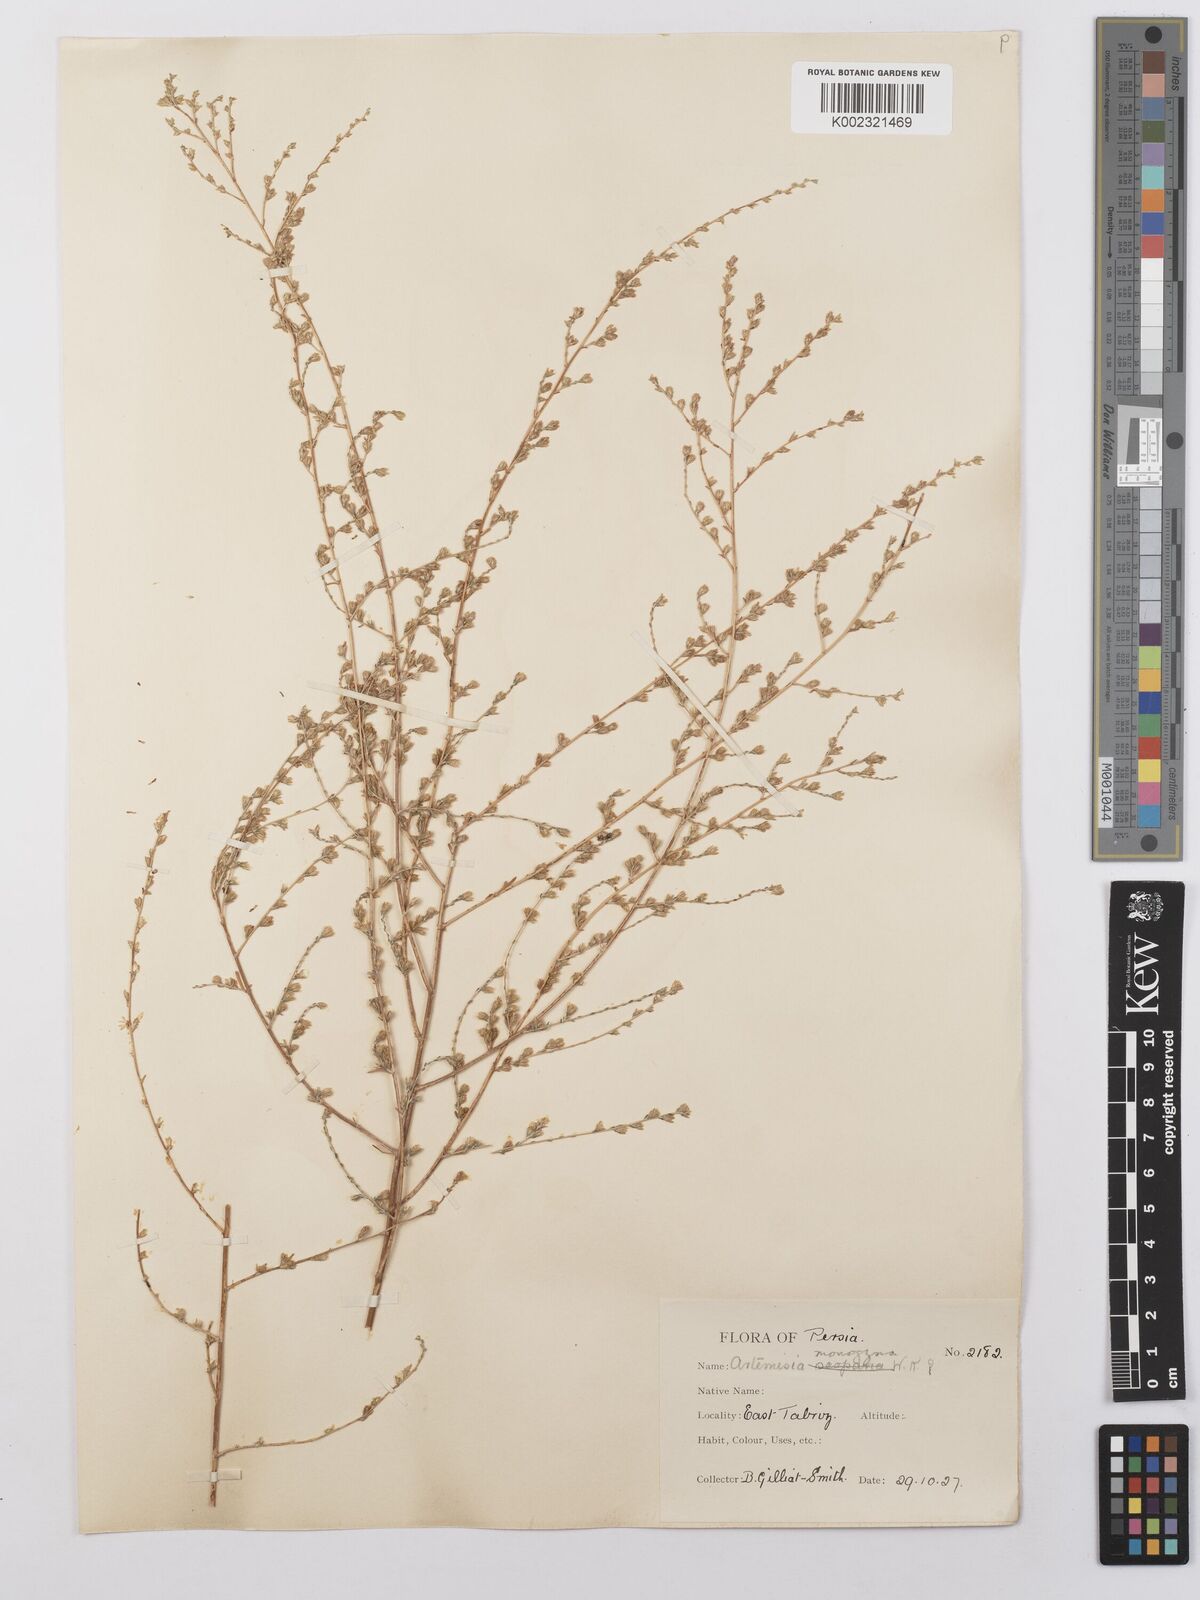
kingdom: Plantae
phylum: Tracheophyta
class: Magnoliopsida
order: Asterales
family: Asteraceae
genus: Artemisia
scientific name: Artemisia fragrans
